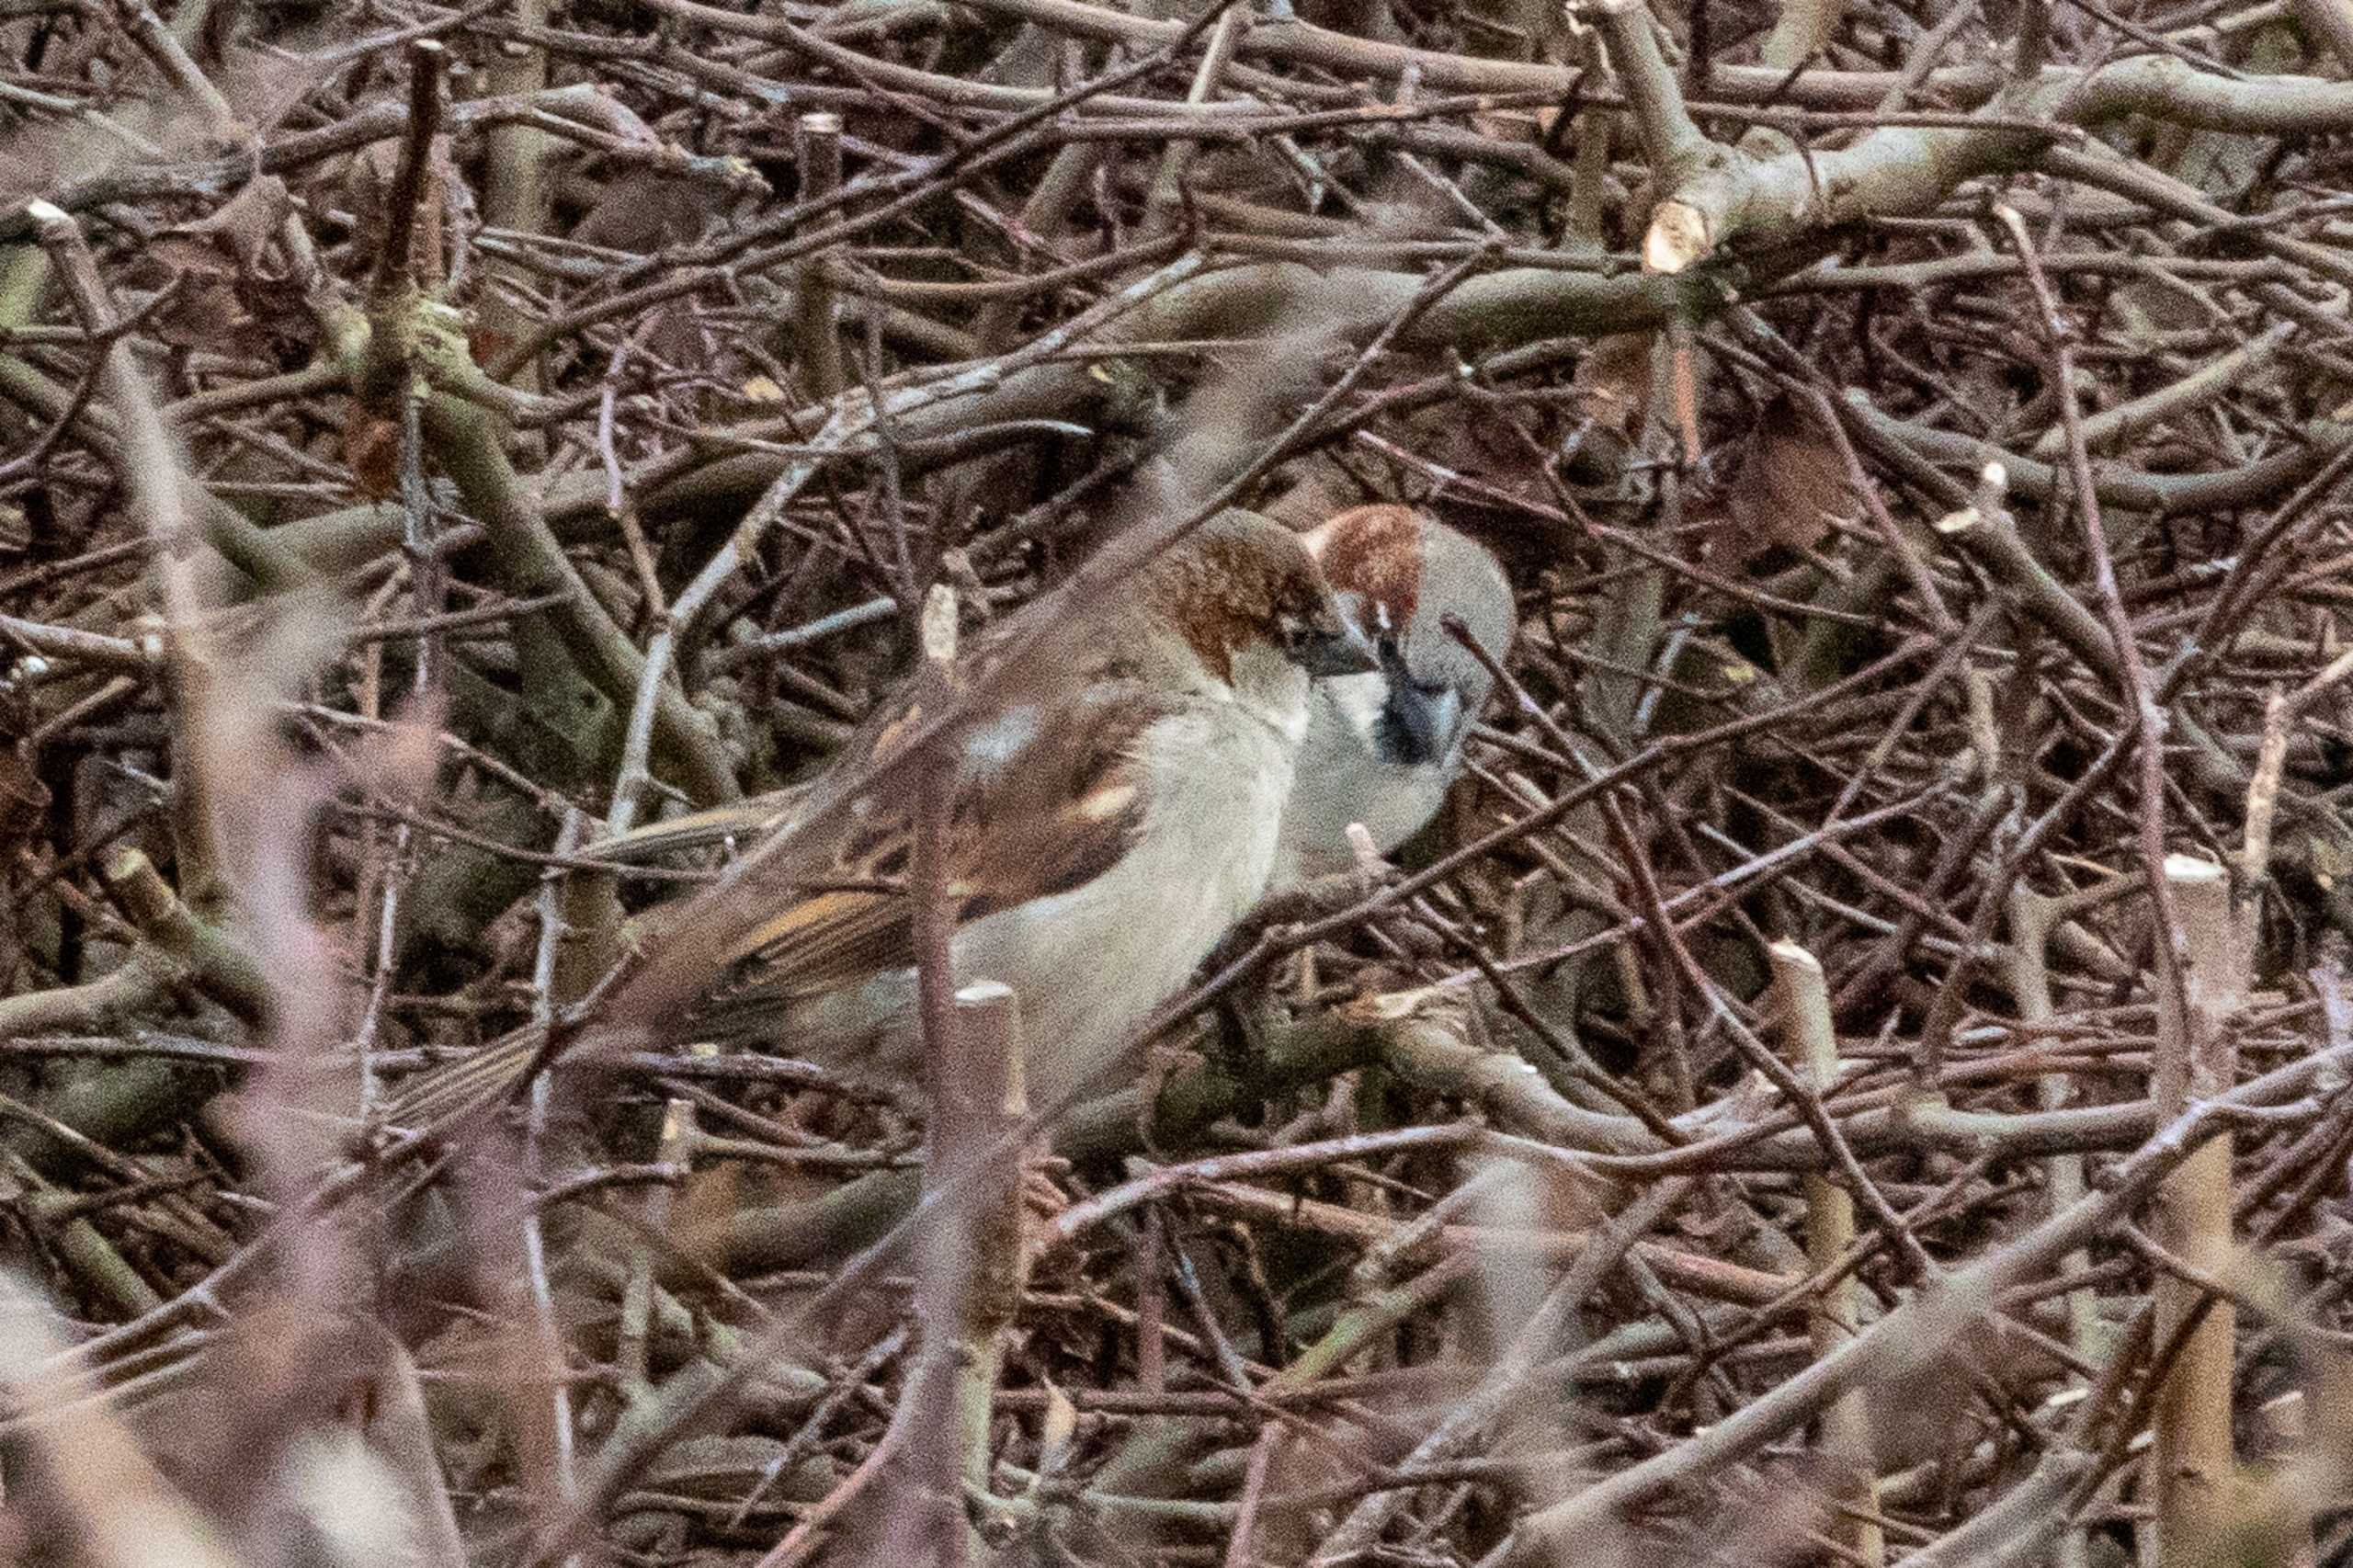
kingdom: Animalia
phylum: Chordata
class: Aves
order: Passeriformes
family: Passeridae
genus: Passer
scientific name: Passer domesticus
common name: Gråspurv
